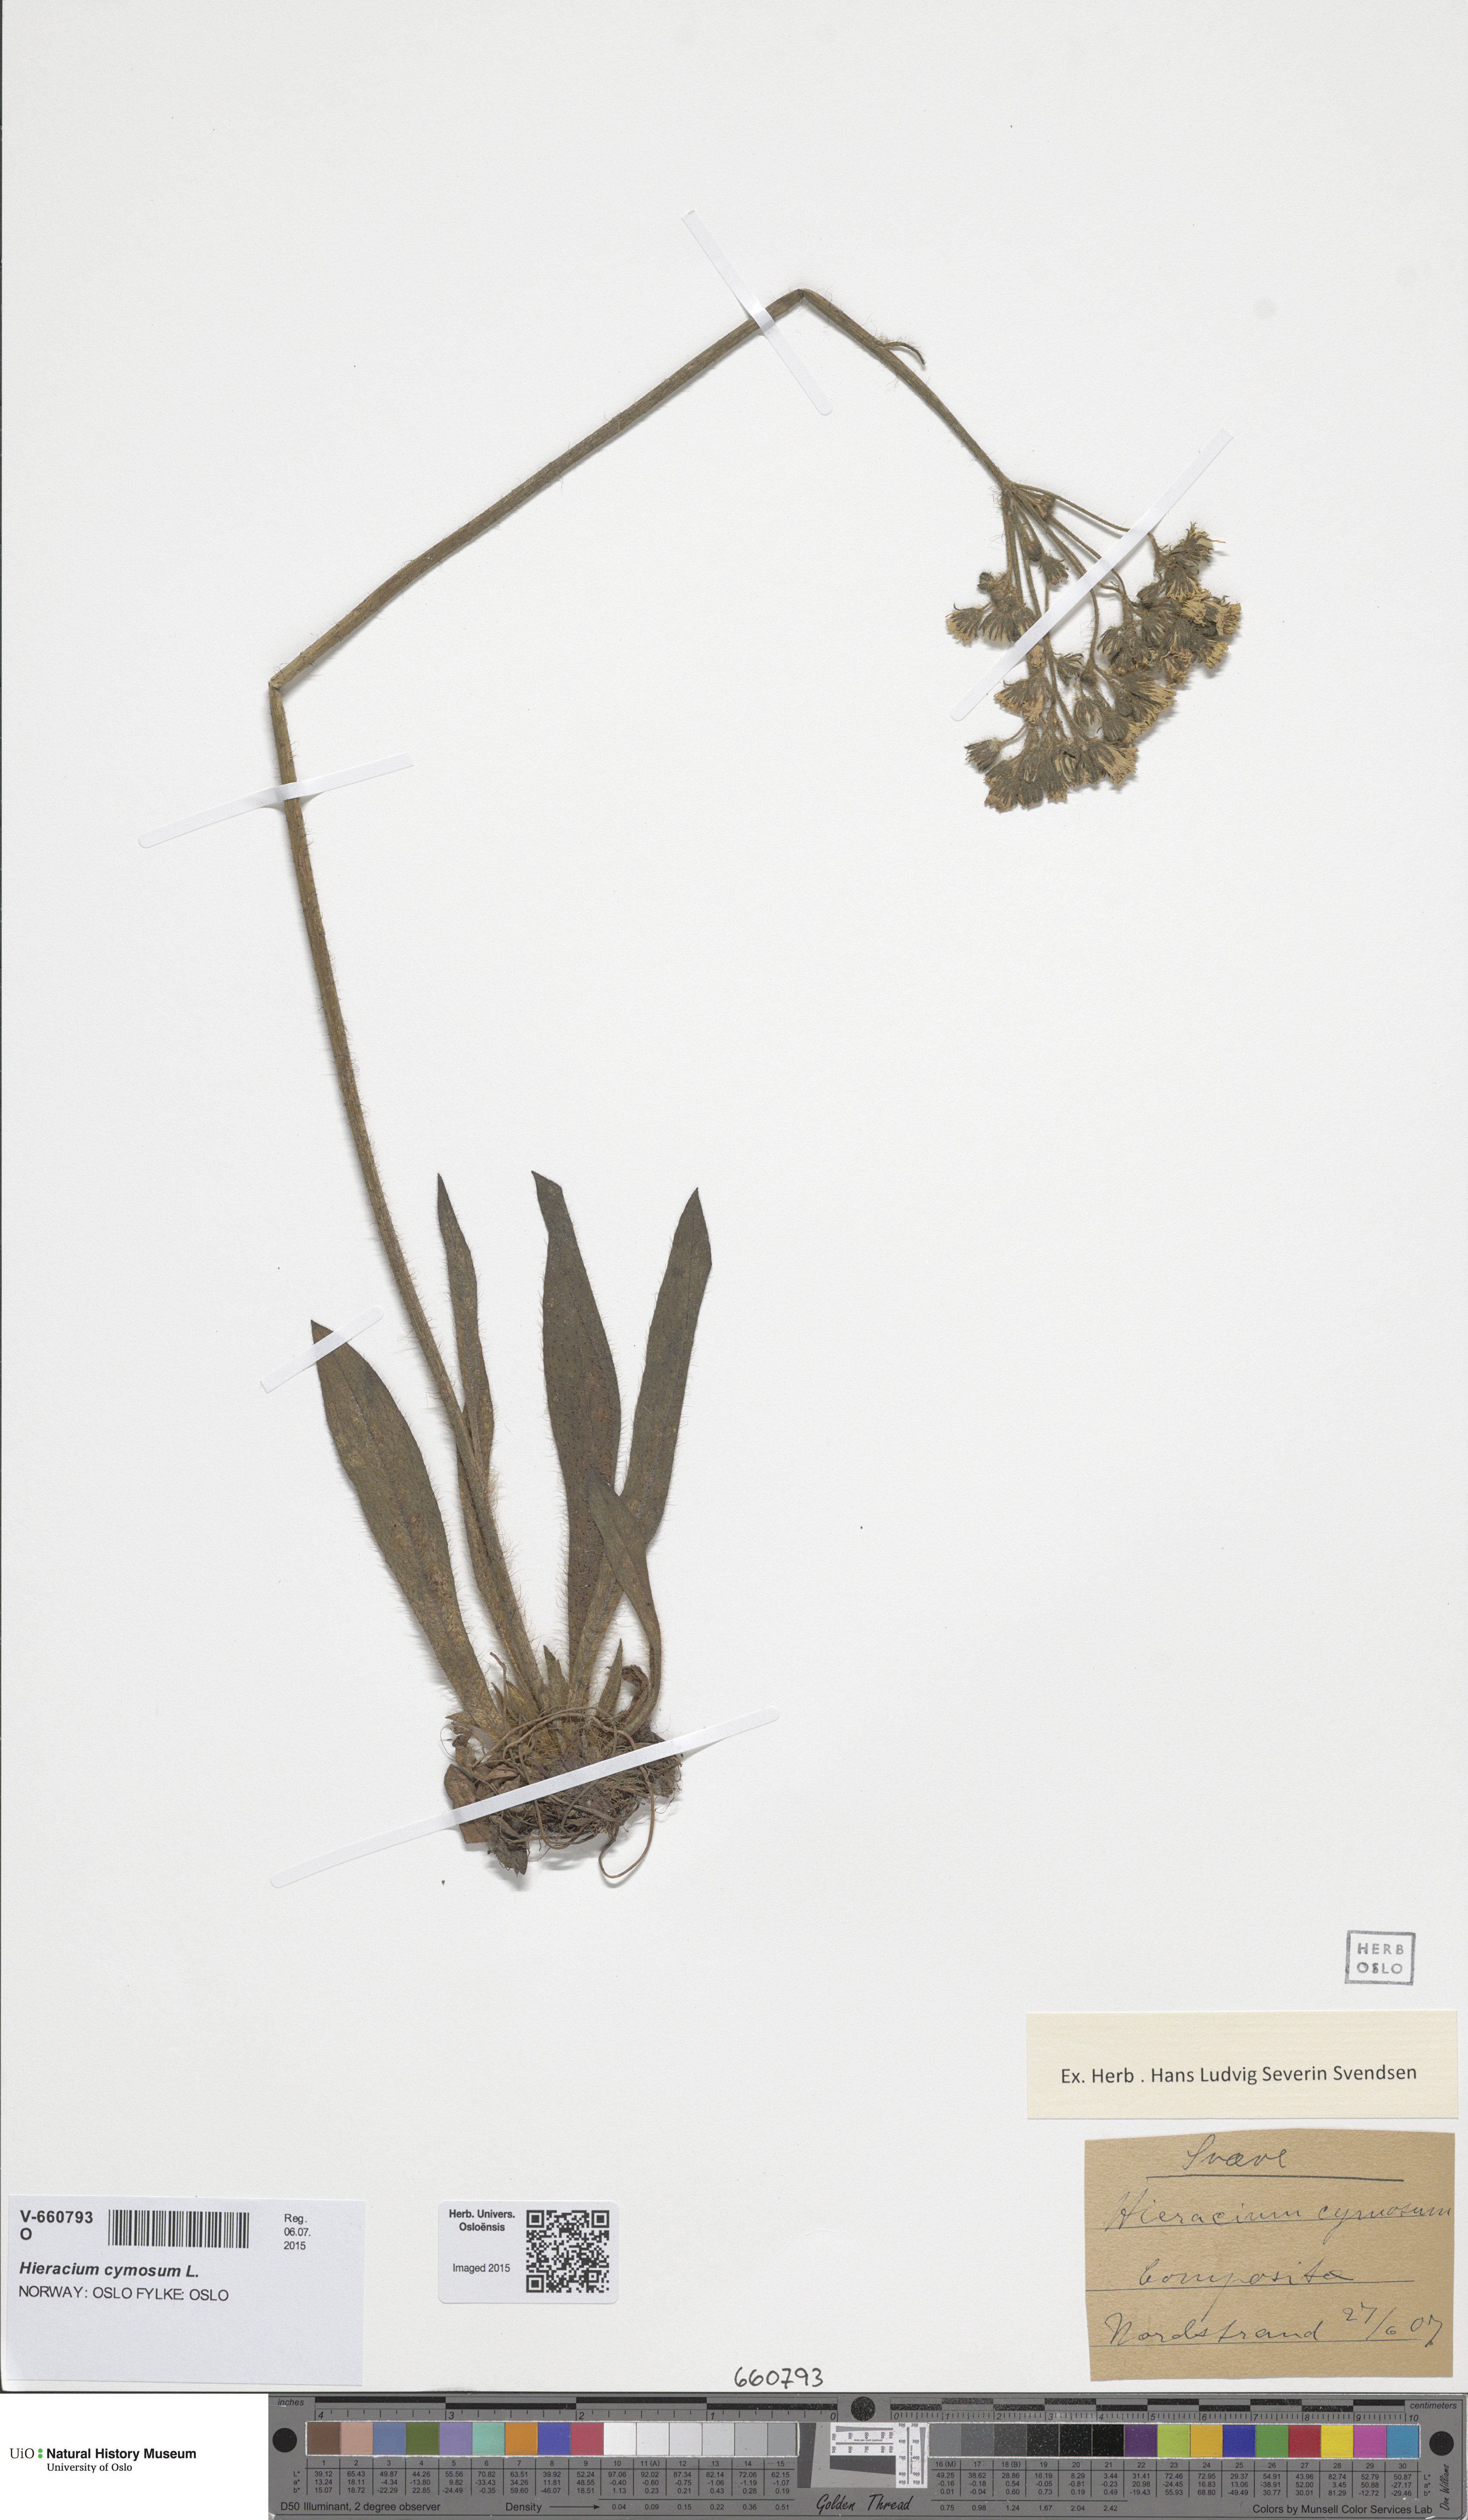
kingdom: Plantae
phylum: Tracheophyta
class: Magnoliopsida
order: Asterales
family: Asteraceae
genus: Pilosella
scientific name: Pilosella cymosa
